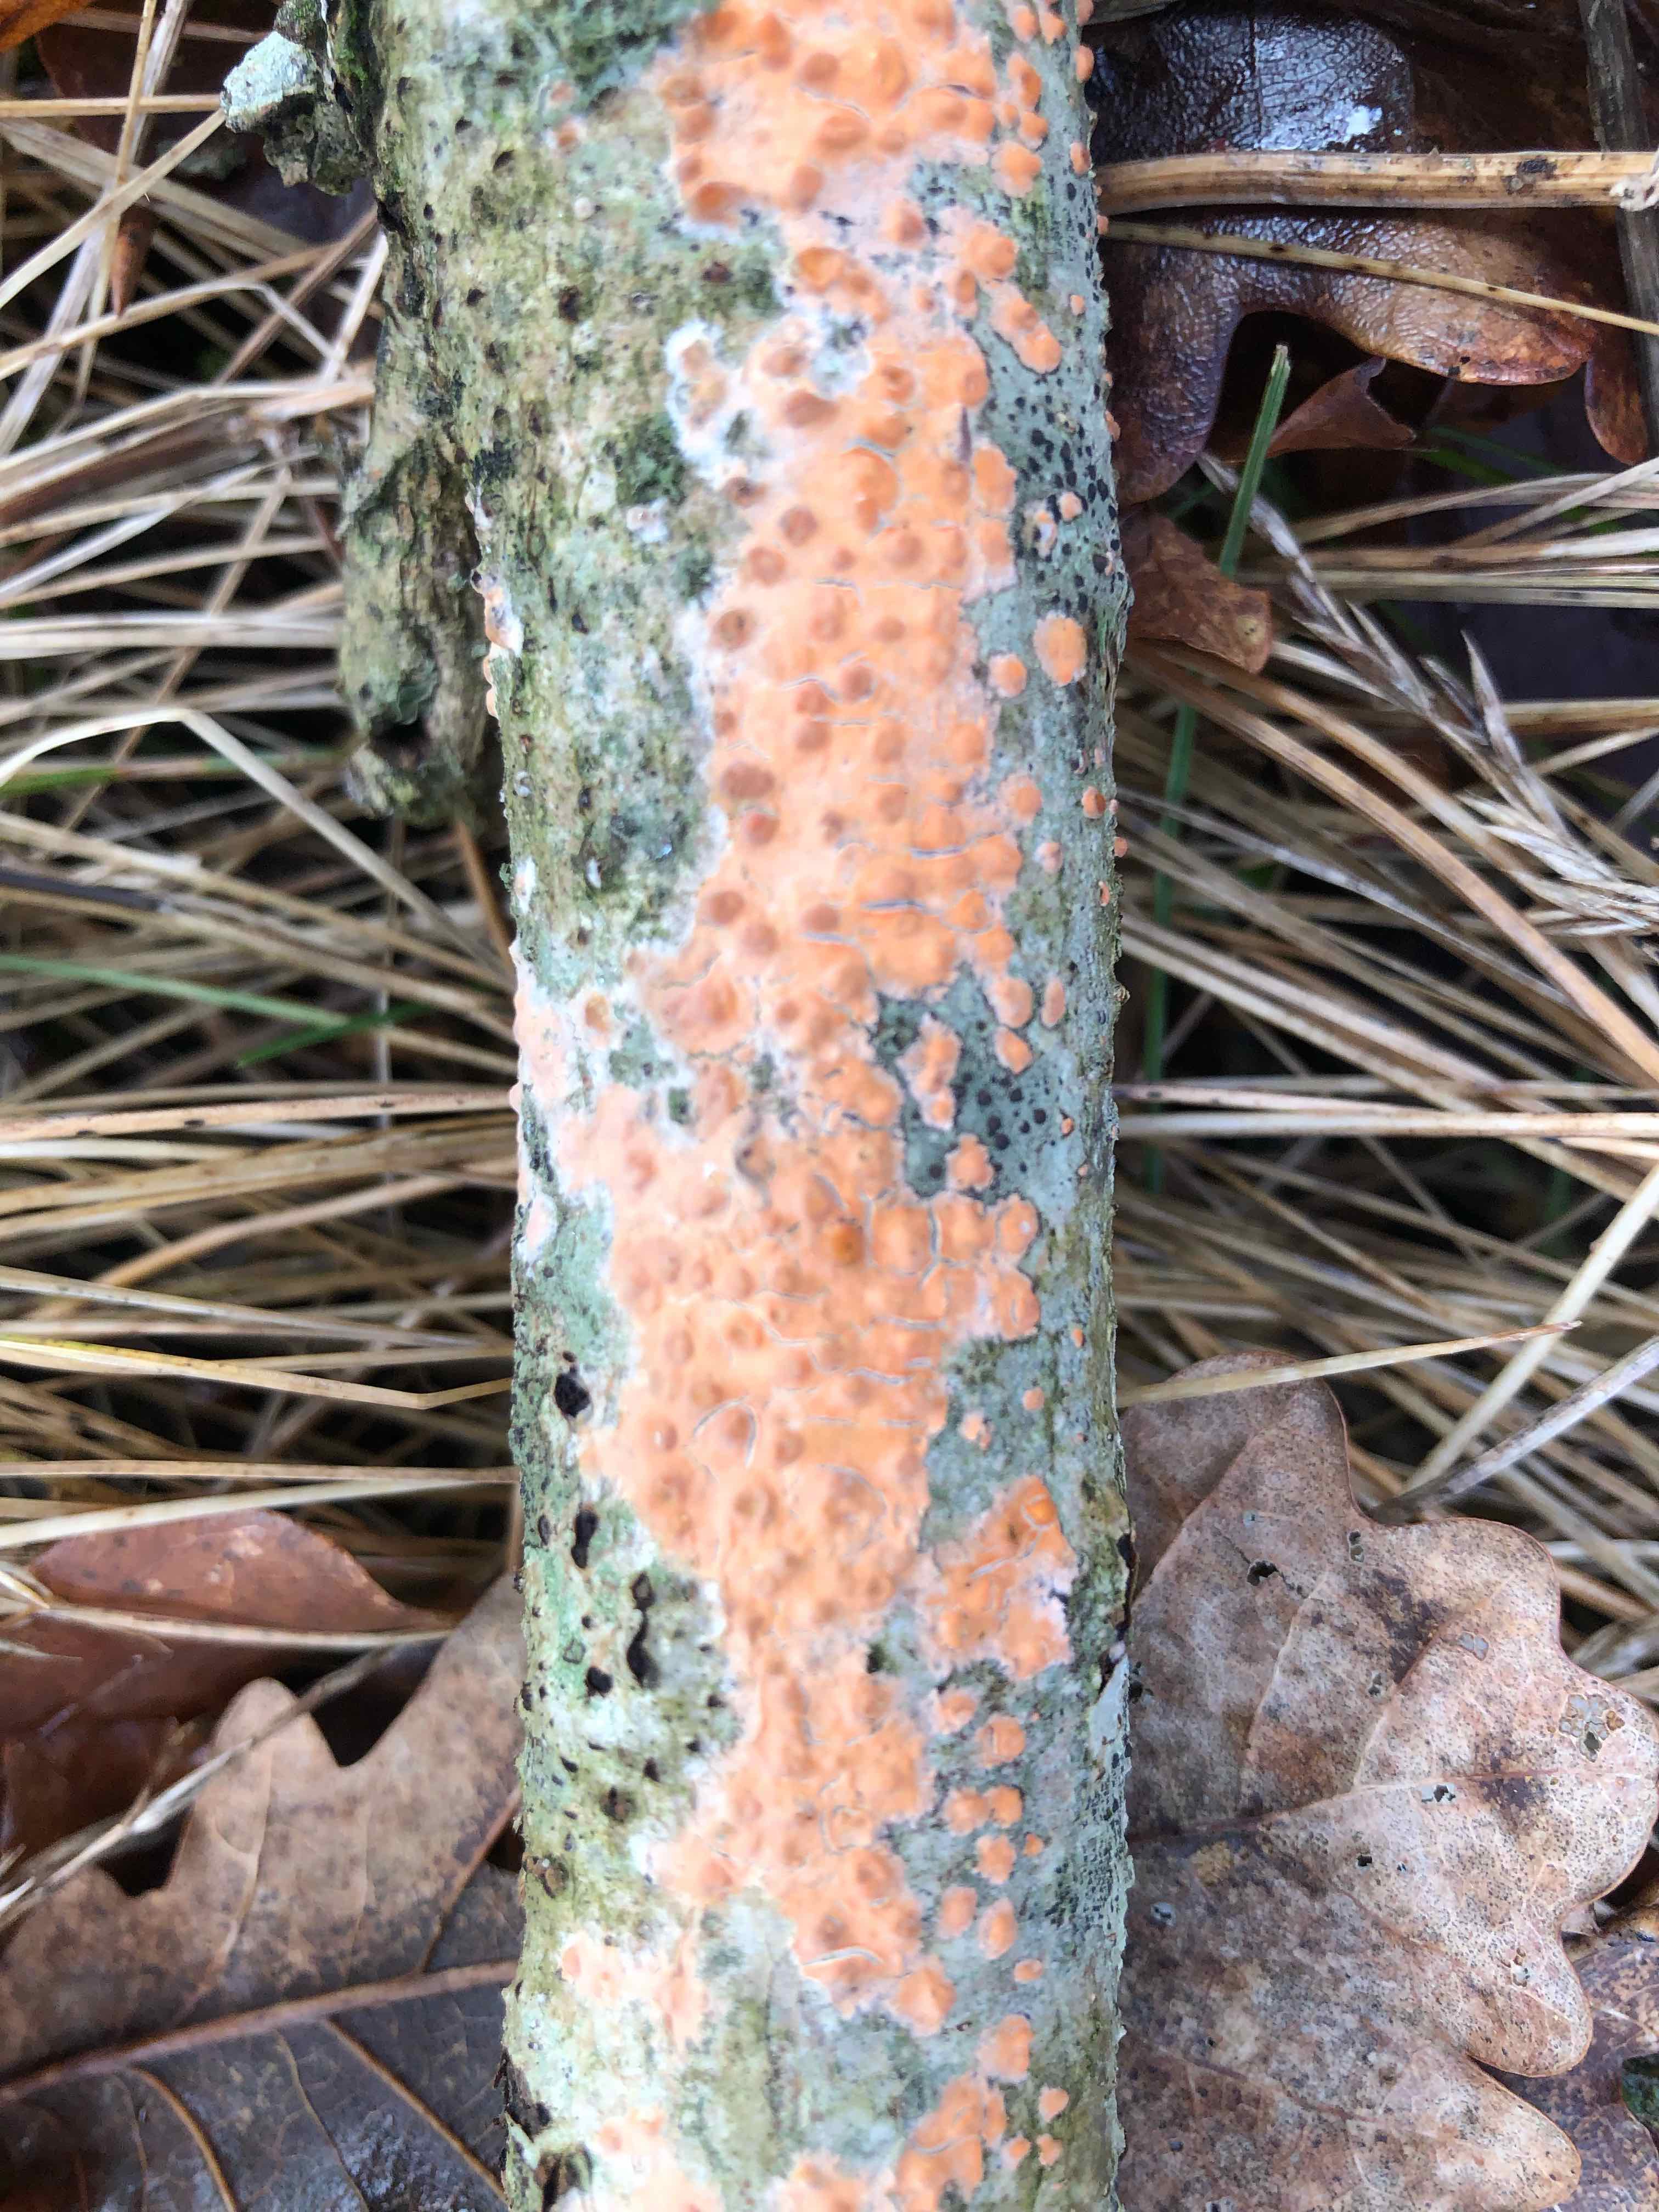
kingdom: Fungi
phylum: Basidiomycota
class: Agaricomycetes
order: Russulales
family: Peniophoraceae
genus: Peniophora
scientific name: Peniophora incarnata
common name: laksefarvet voksskind
